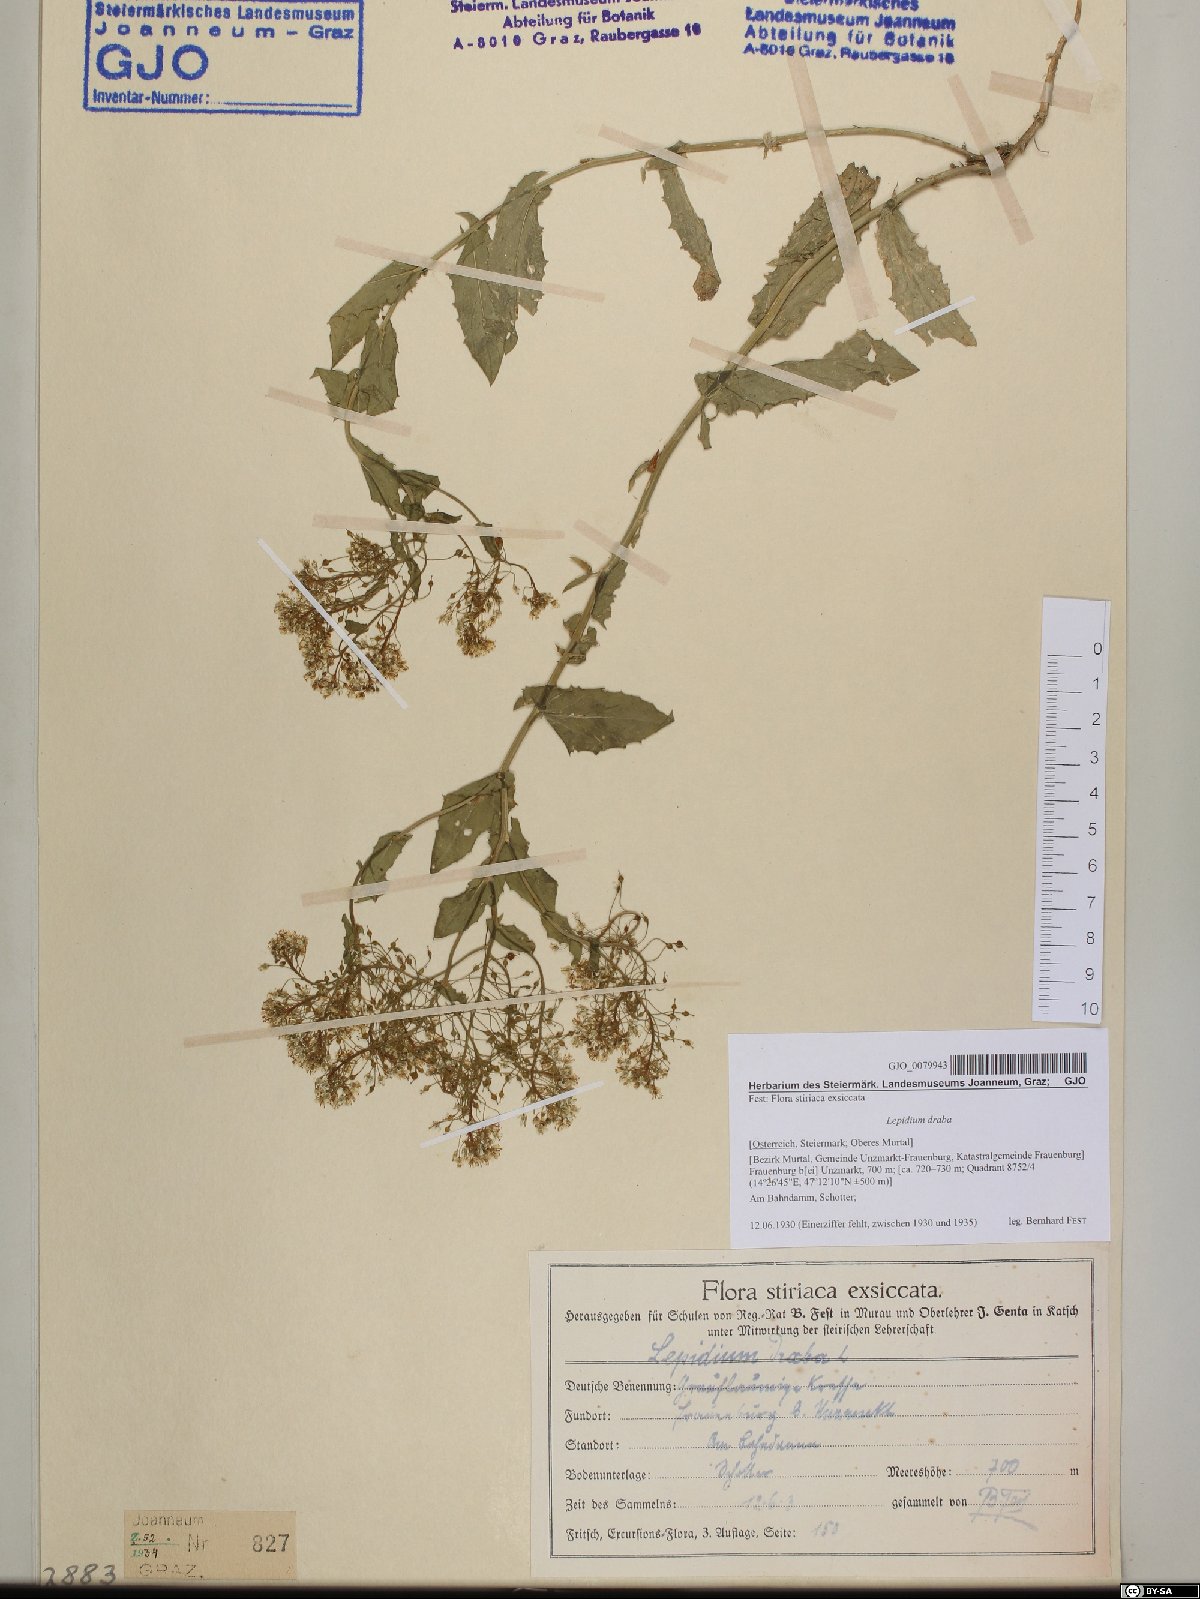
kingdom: Plantae
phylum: Tracheophyta
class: Magnoliopsida
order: Brassicales
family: Brassicaceae
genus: Lepidium
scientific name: Lepidium draba
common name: Hoary cress
